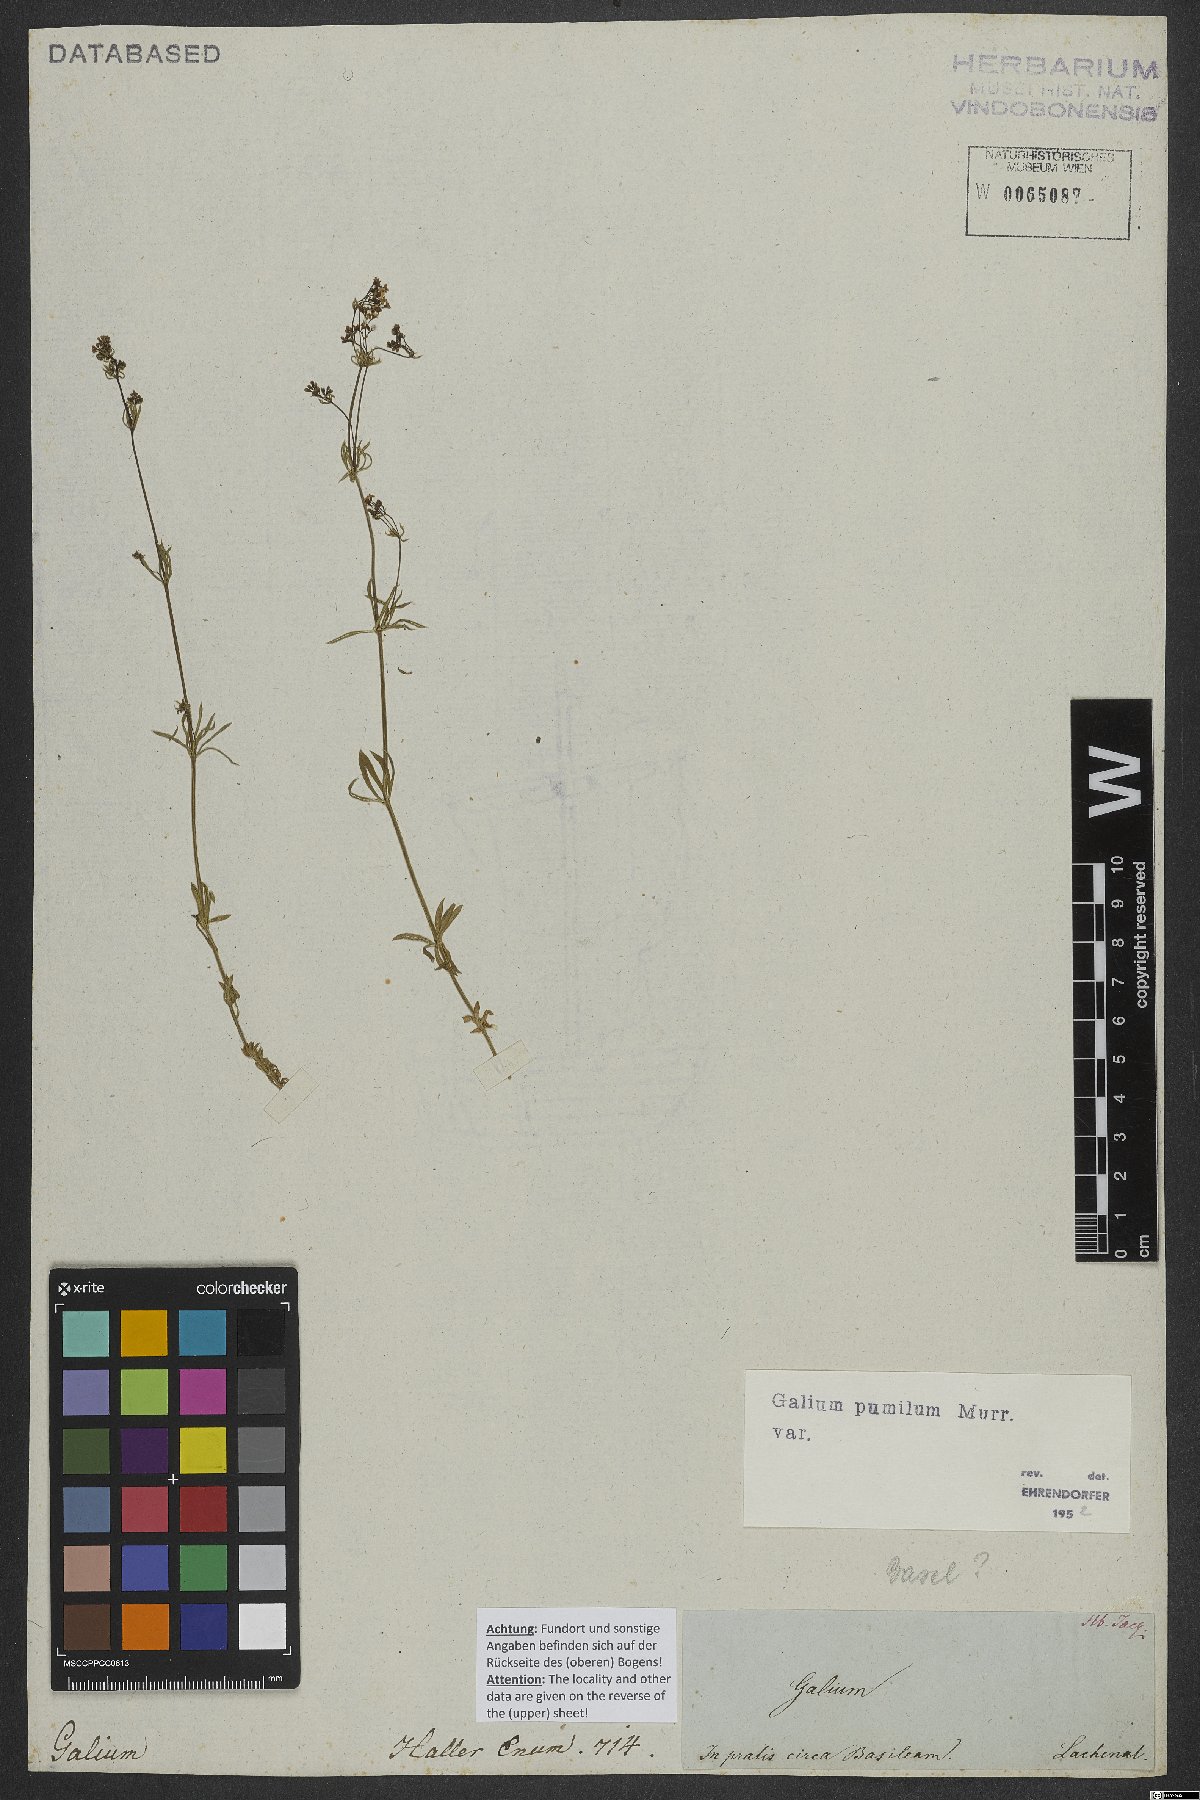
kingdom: Plantae
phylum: Tracheophyta
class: Magnoliopsida
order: Gentianales
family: Rubiaceae
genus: Galium
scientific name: Galium pumilum
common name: Slender bedstraw
